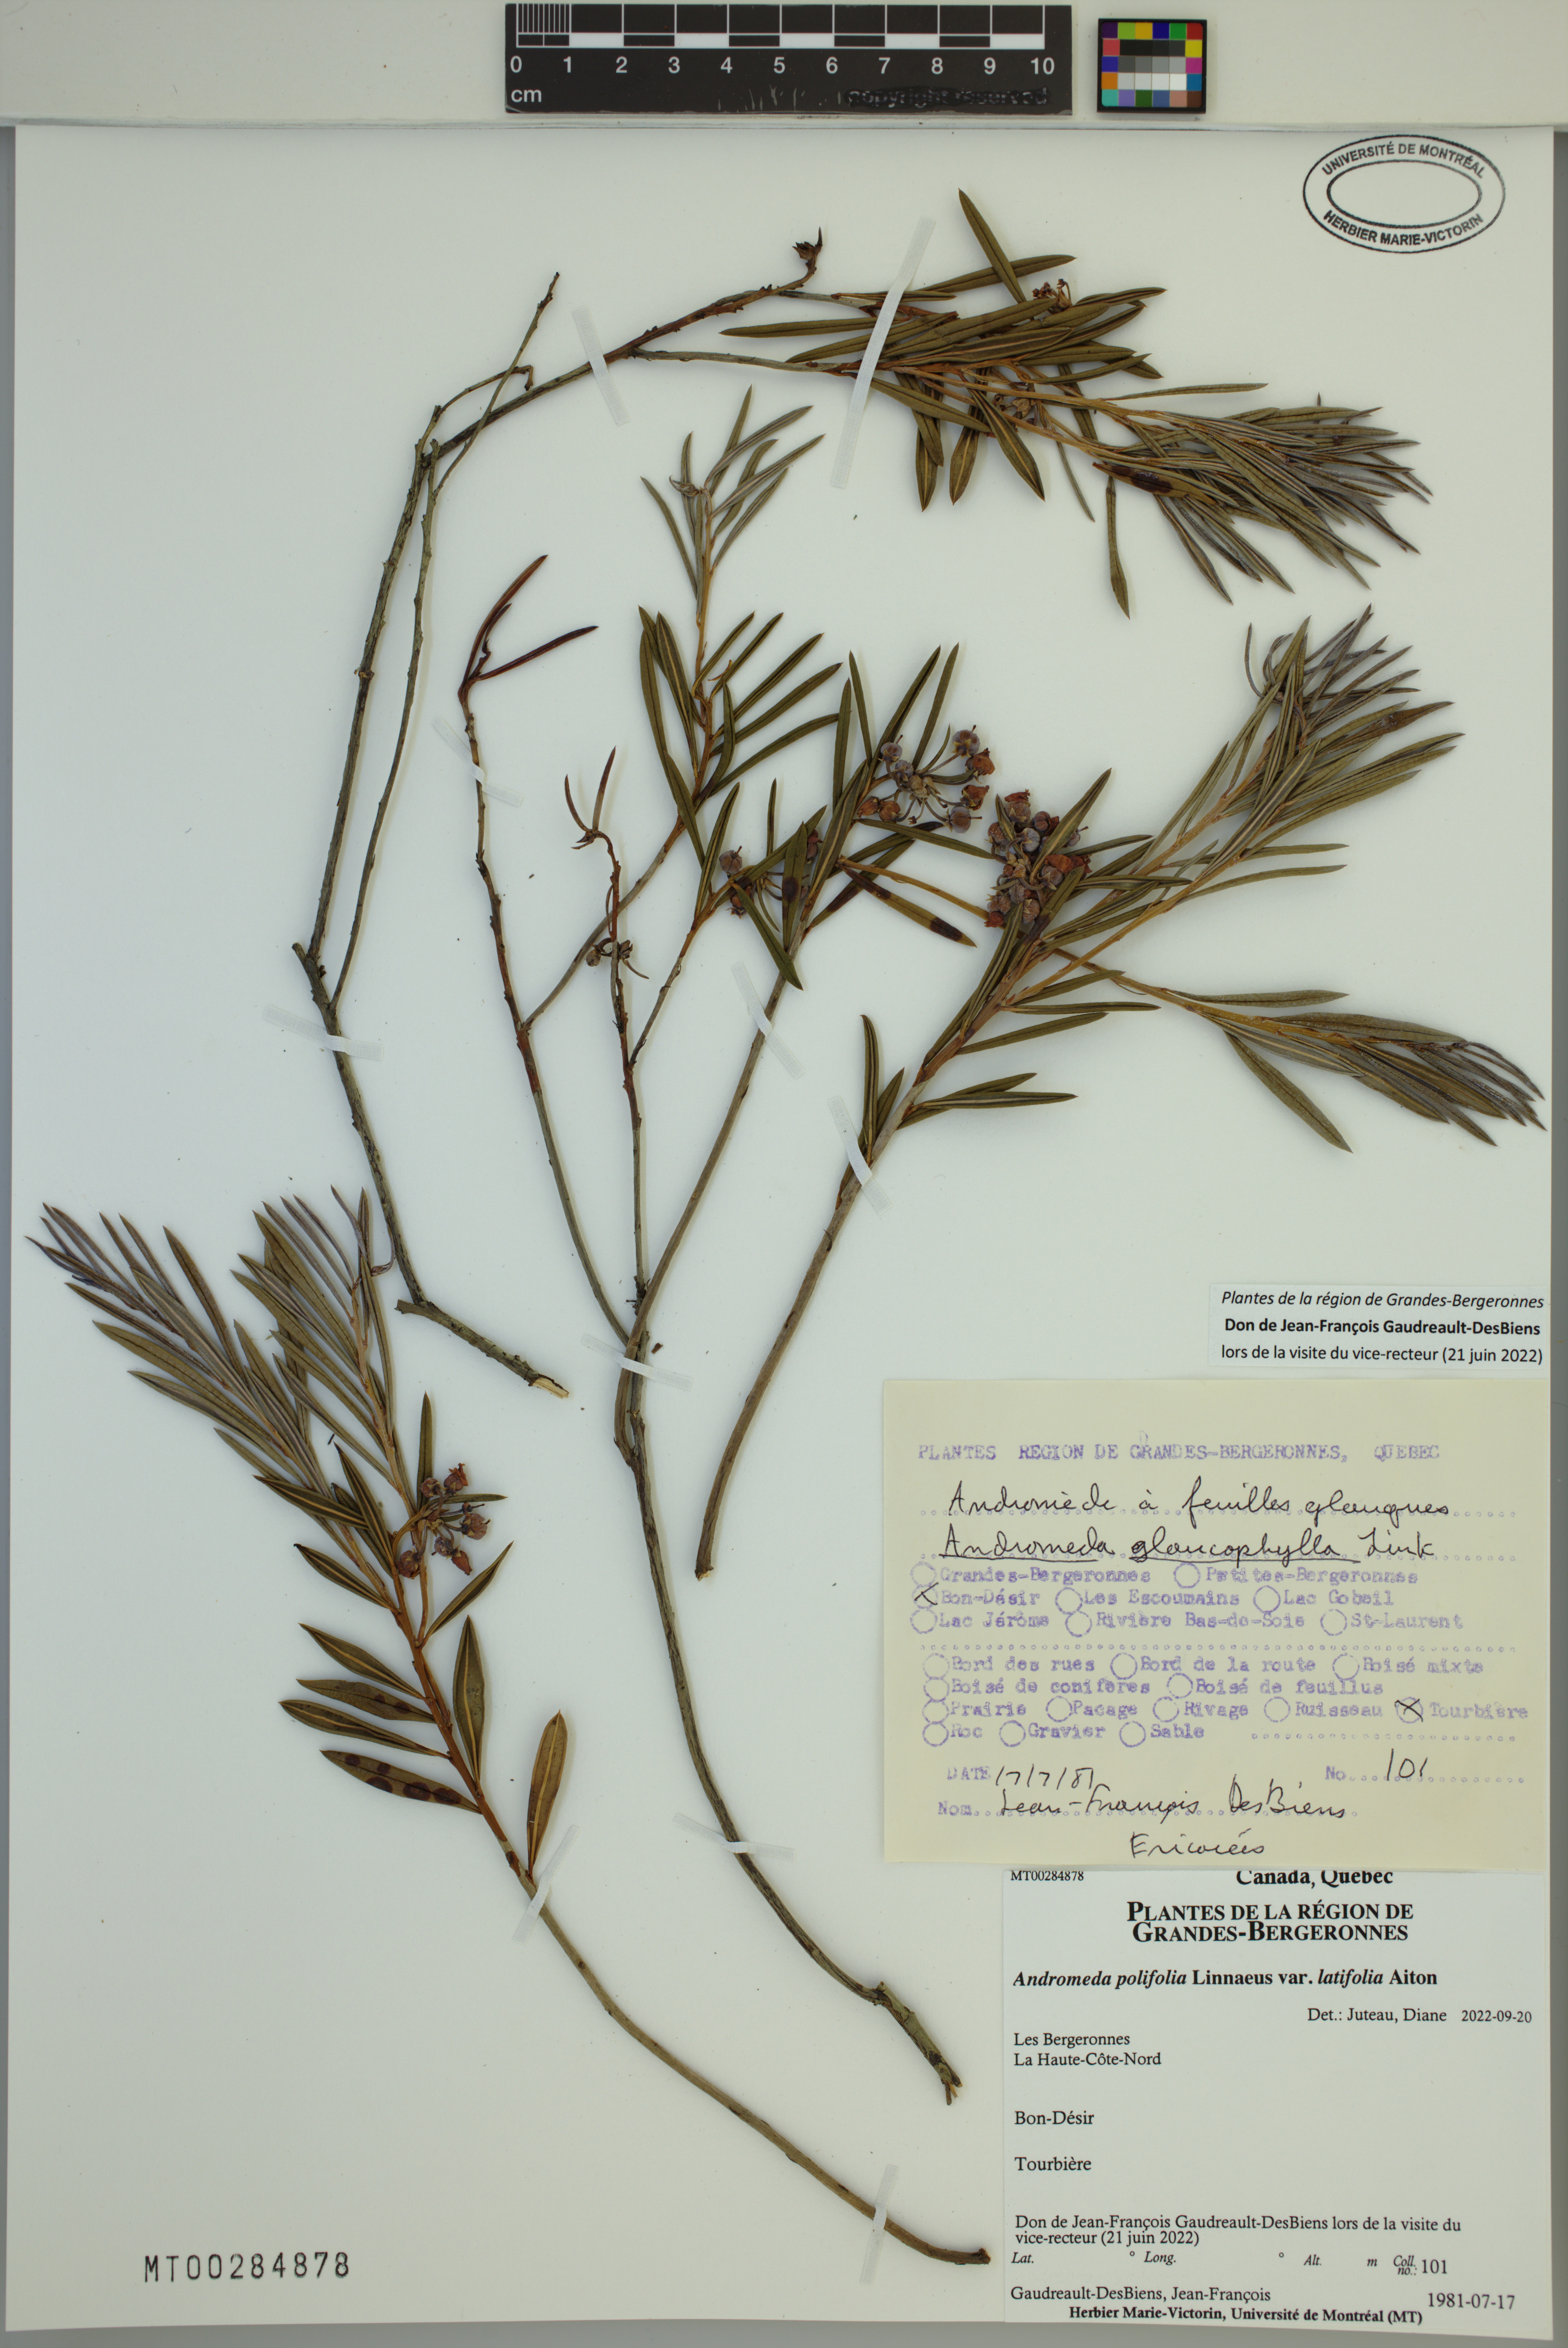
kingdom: Plantae
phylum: Tracheophyta
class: Magnoliopsida
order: Ericales
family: Ericaceae
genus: Andromeda
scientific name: Andromeda polifolia
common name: Bog-rosemary
